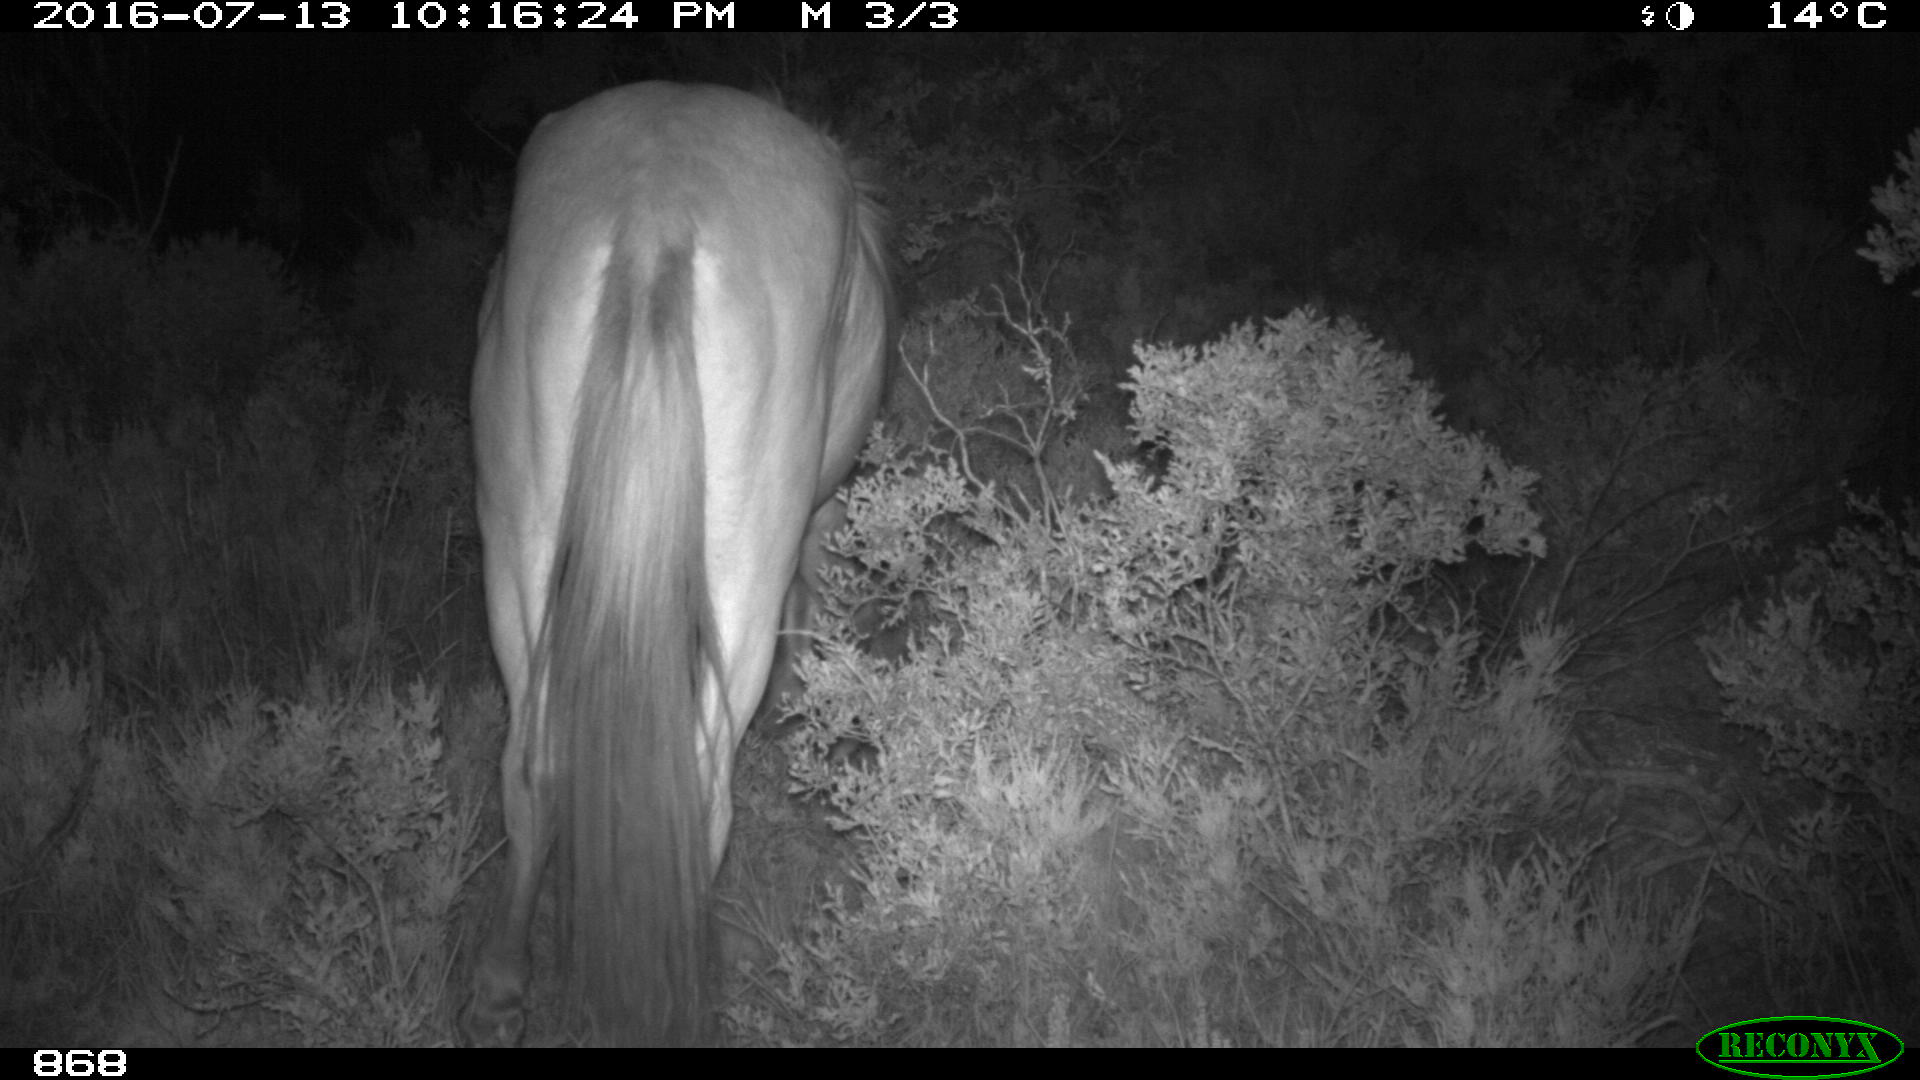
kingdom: Animalia
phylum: Chordata
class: Mammalia
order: Perissodactyla
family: Equidae
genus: Equus
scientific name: Equus caballus
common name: Horse
